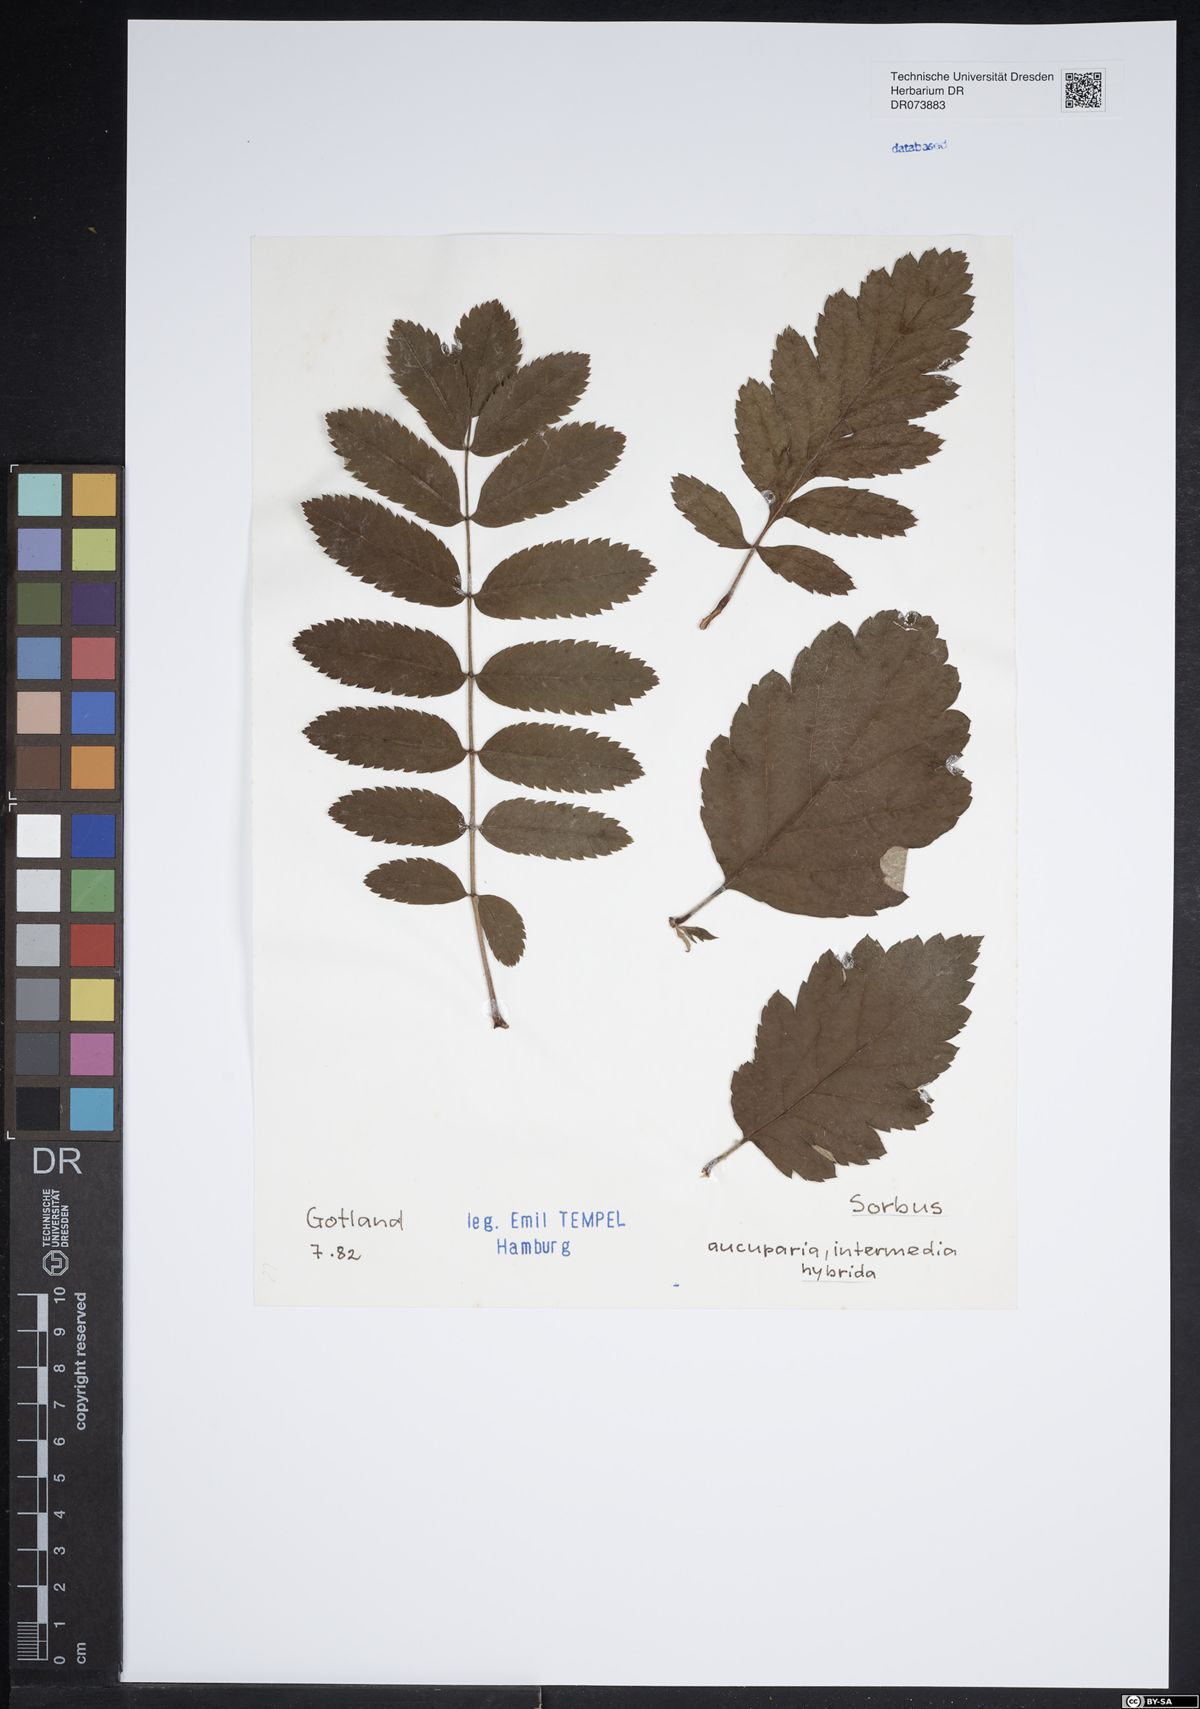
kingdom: Plantae
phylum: Tracheophyta
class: Magnoliopsida
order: Rosales
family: Rosaceae
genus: Hedlundia
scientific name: Hedlundia hybrida
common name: Swedish service-tree
